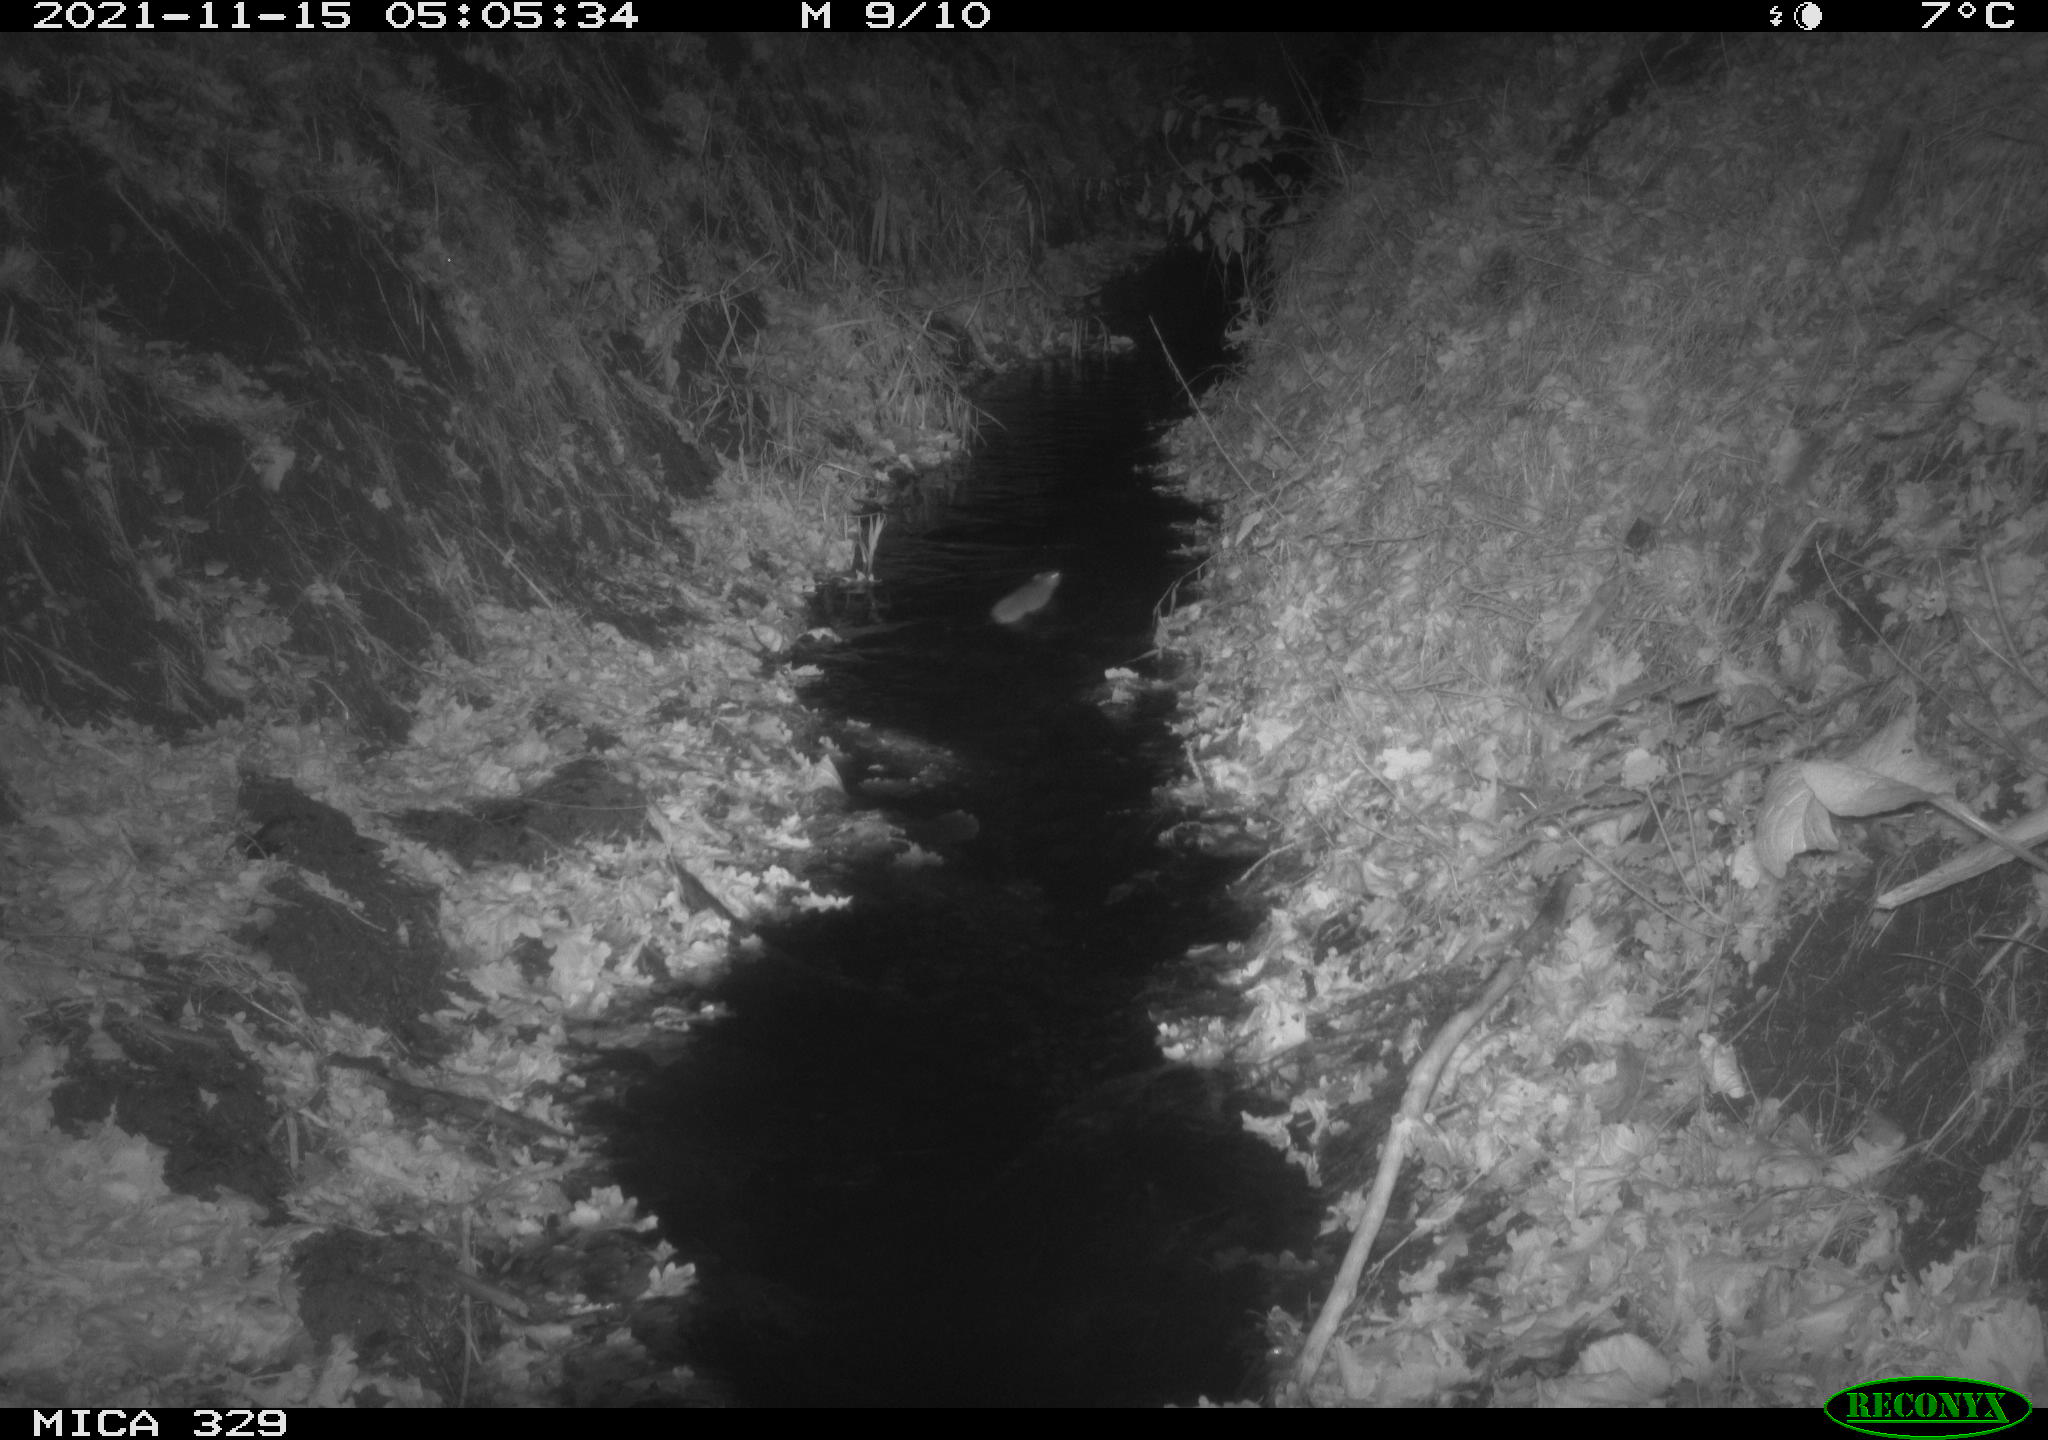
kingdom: Animalia
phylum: Chordata
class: Mammalia
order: Rodentia
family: Muridae
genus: Rattus
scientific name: Rattus norvegicus
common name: Brown rat
